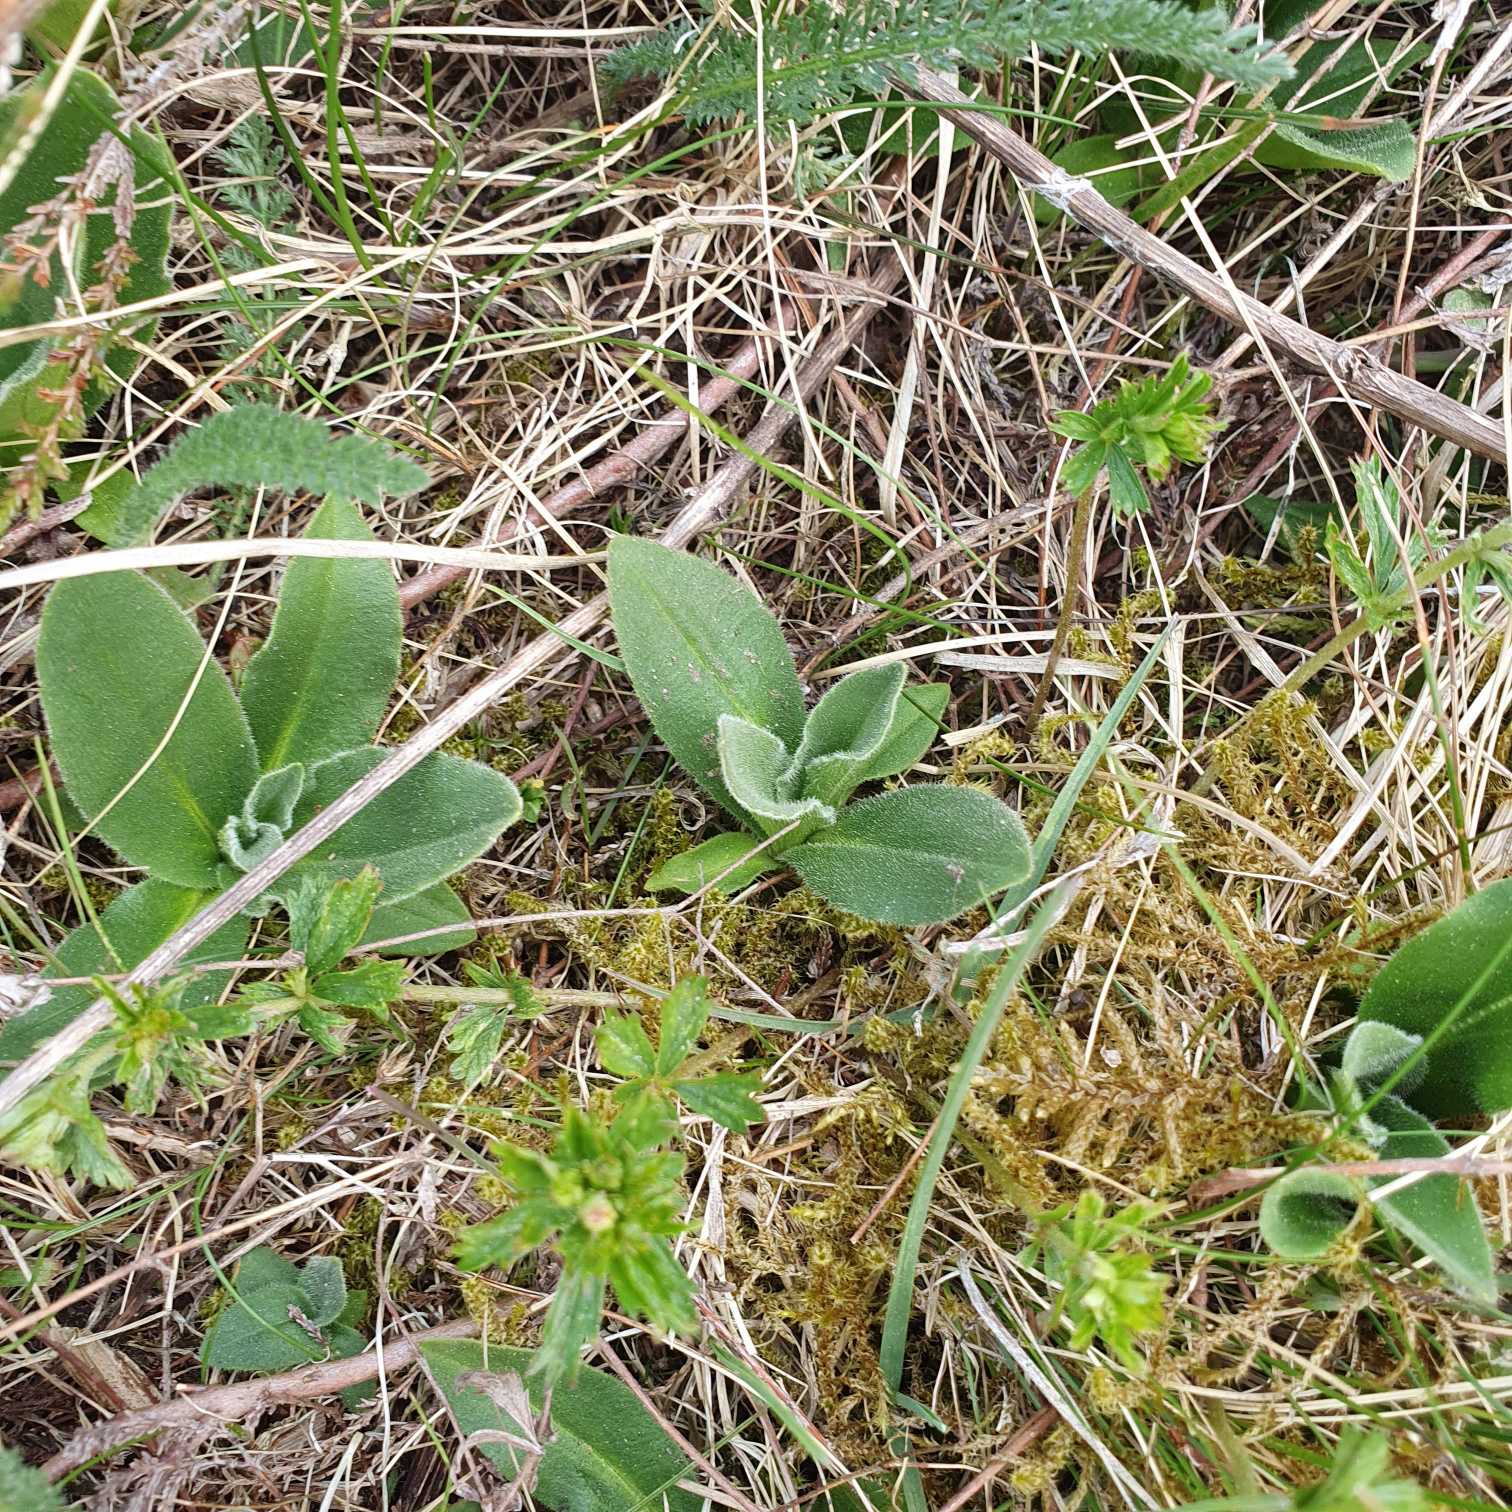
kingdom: Plantae
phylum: Tracheophyta
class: Magnoliopsida
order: Asterales
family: Asteraceae
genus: Arnica
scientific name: Arnica montana
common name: Guldblomme
